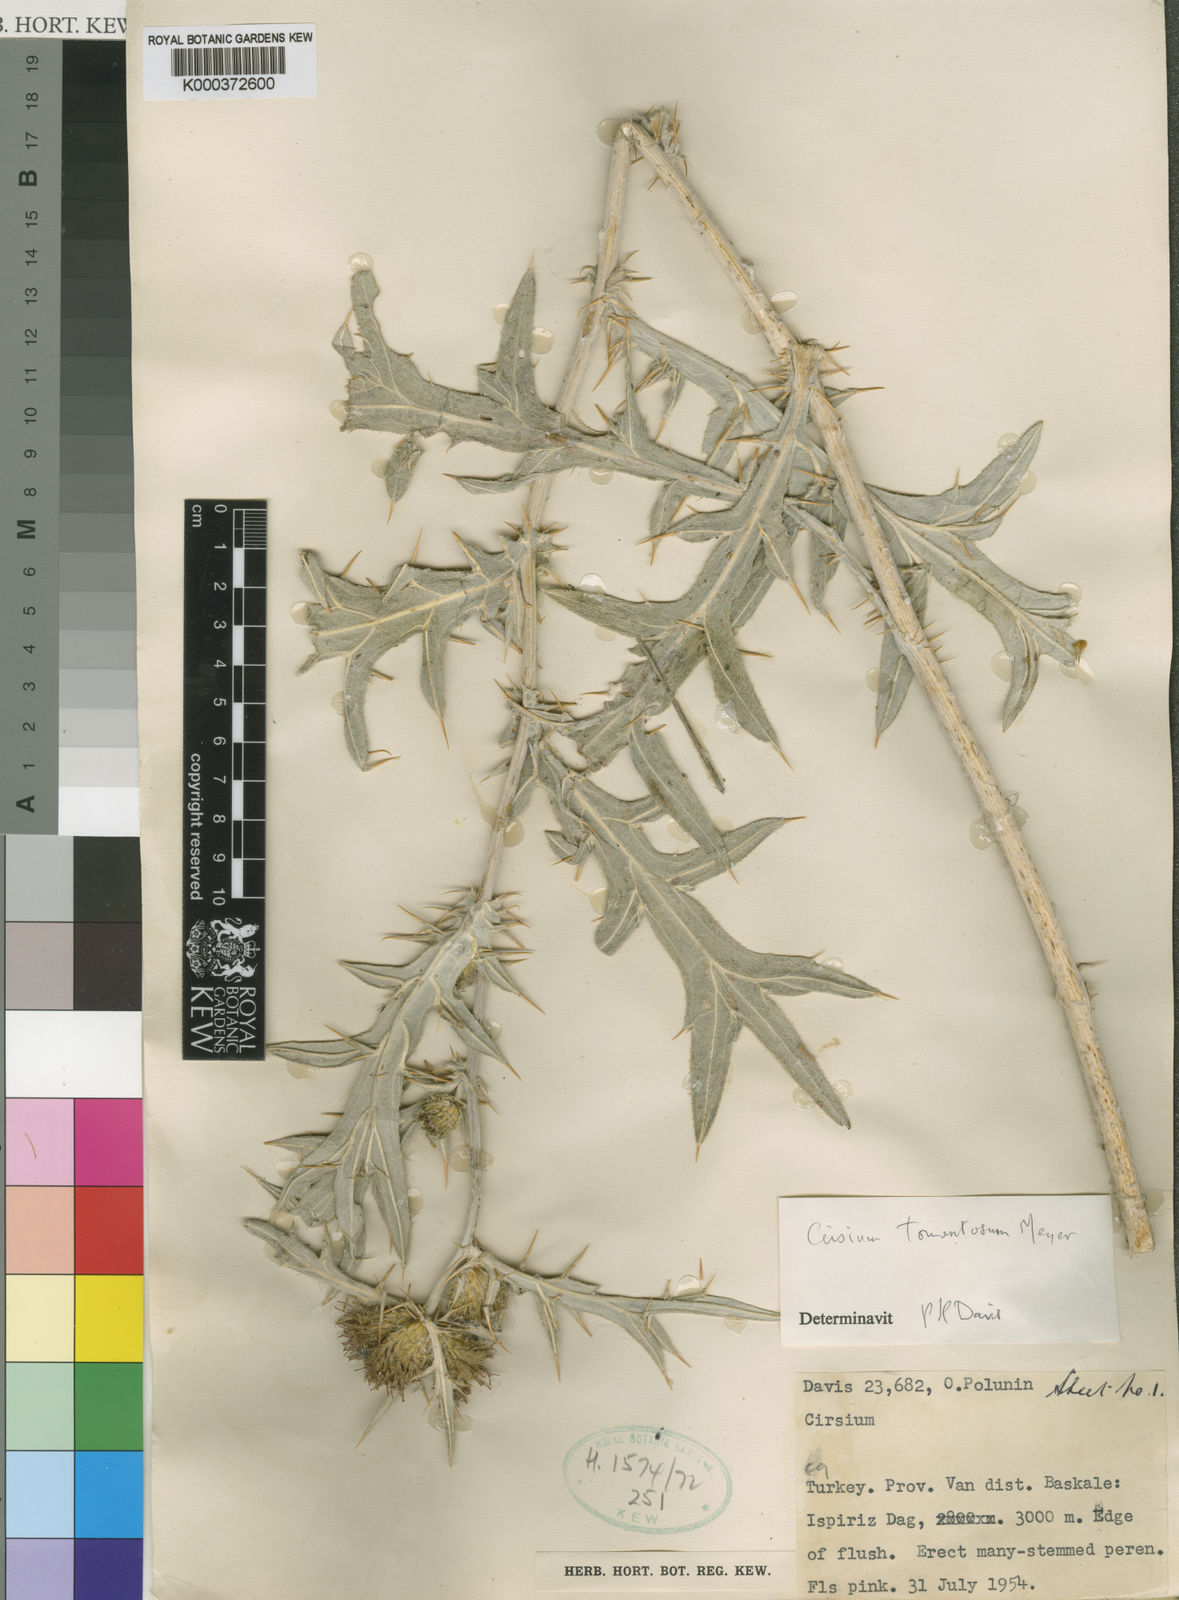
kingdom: Plantae
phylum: Tracheophyta
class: Magnoliopsida
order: Asterales
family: Asteraceae
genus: Lophiolepis
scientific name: Lophiolepis isophylla
